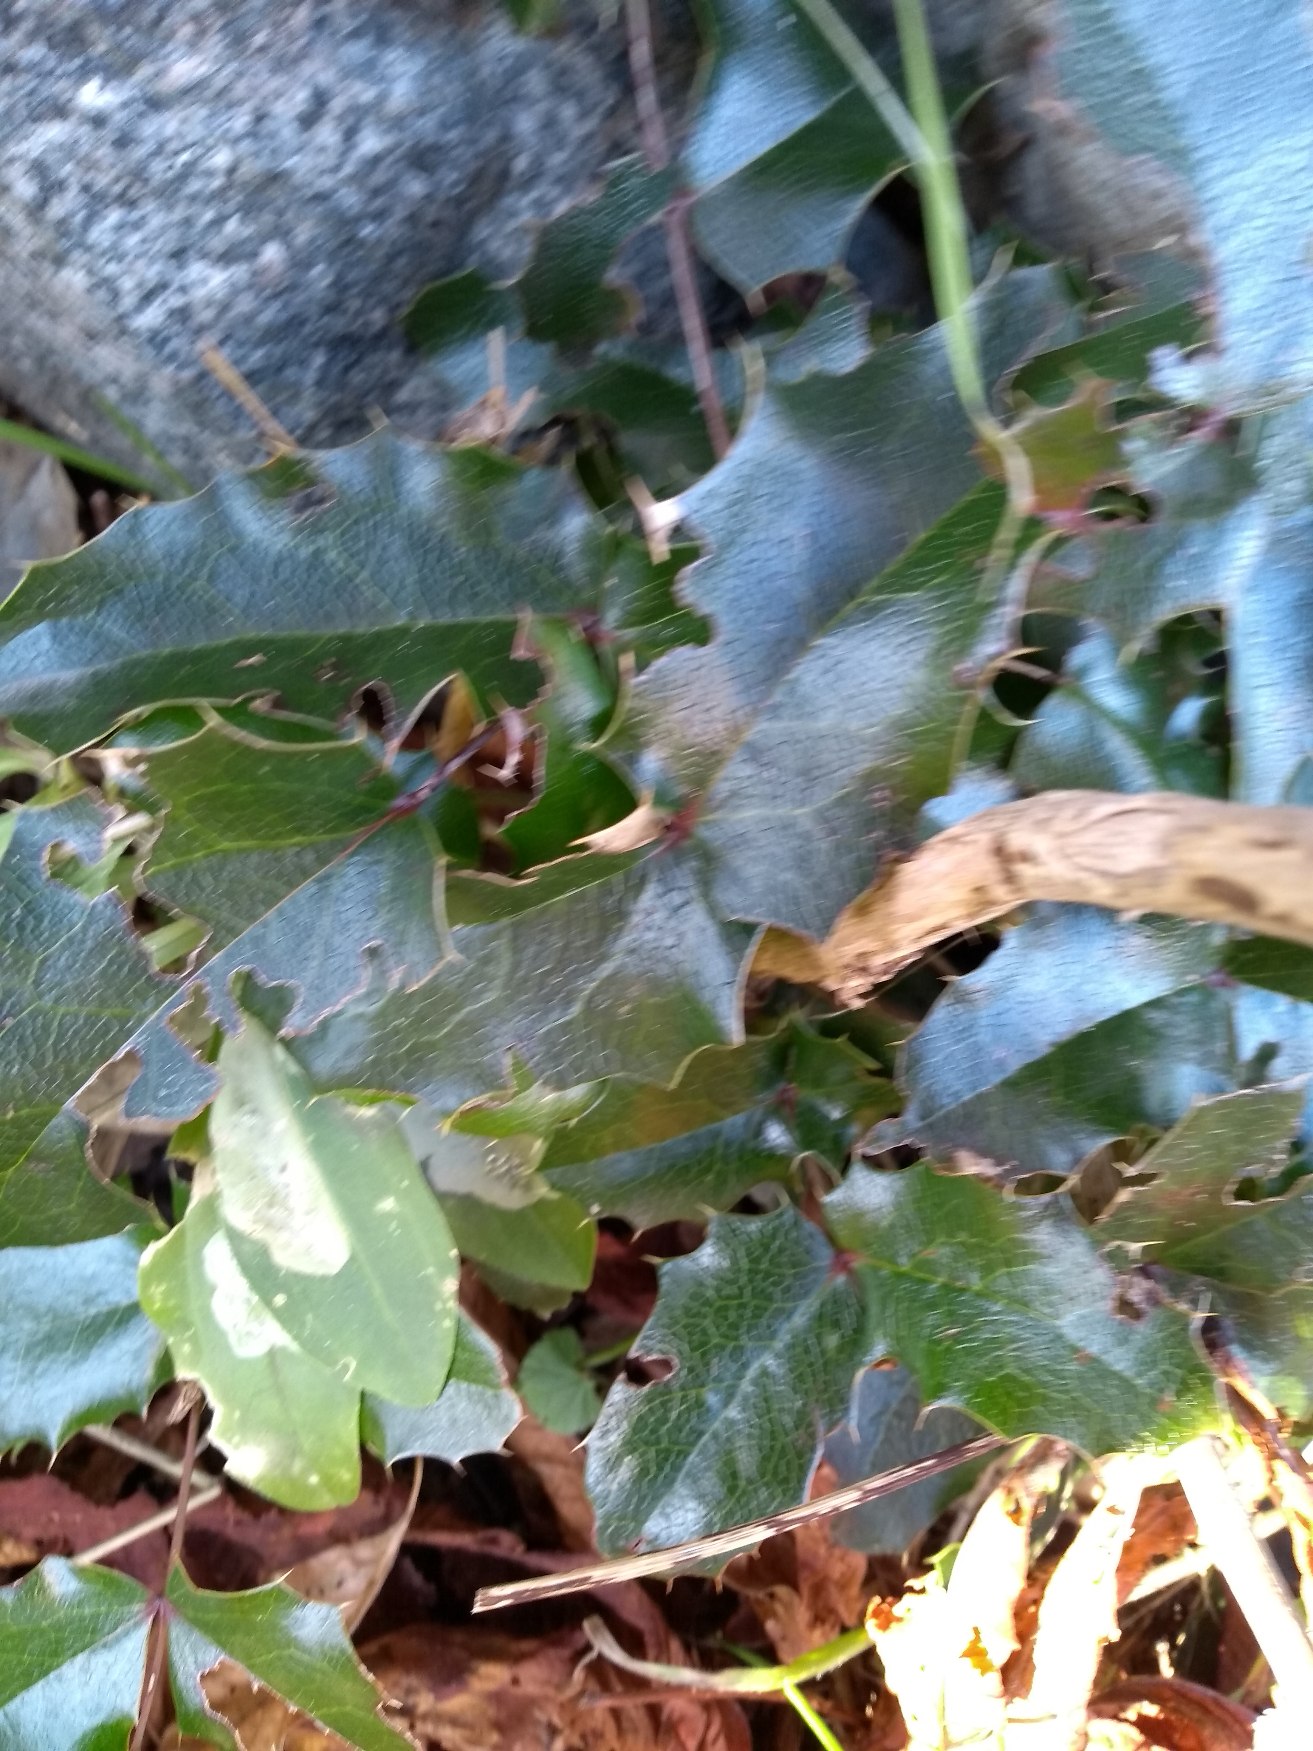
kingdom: Plantae
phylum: Tracheophyta
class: Magnoliopsida
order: Ranunculales
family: Berberidaceae
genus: Mahonia
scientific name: Mahonia aquifolium
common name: Almindelig mahonie
